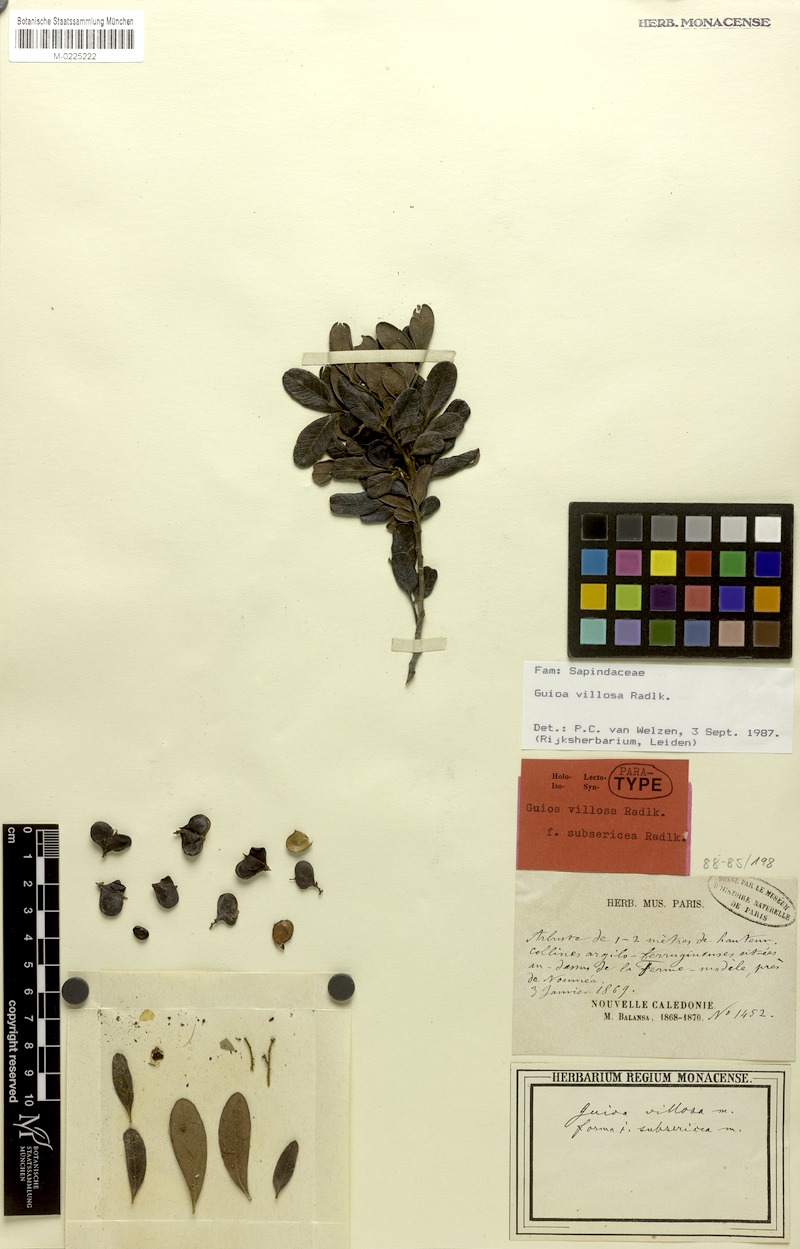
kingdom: Plantae
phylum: Tracheophyta
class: Magnoliopsida
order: Sapindales
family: Sapindaceae
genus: Guioa
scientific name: Guioa villosa
